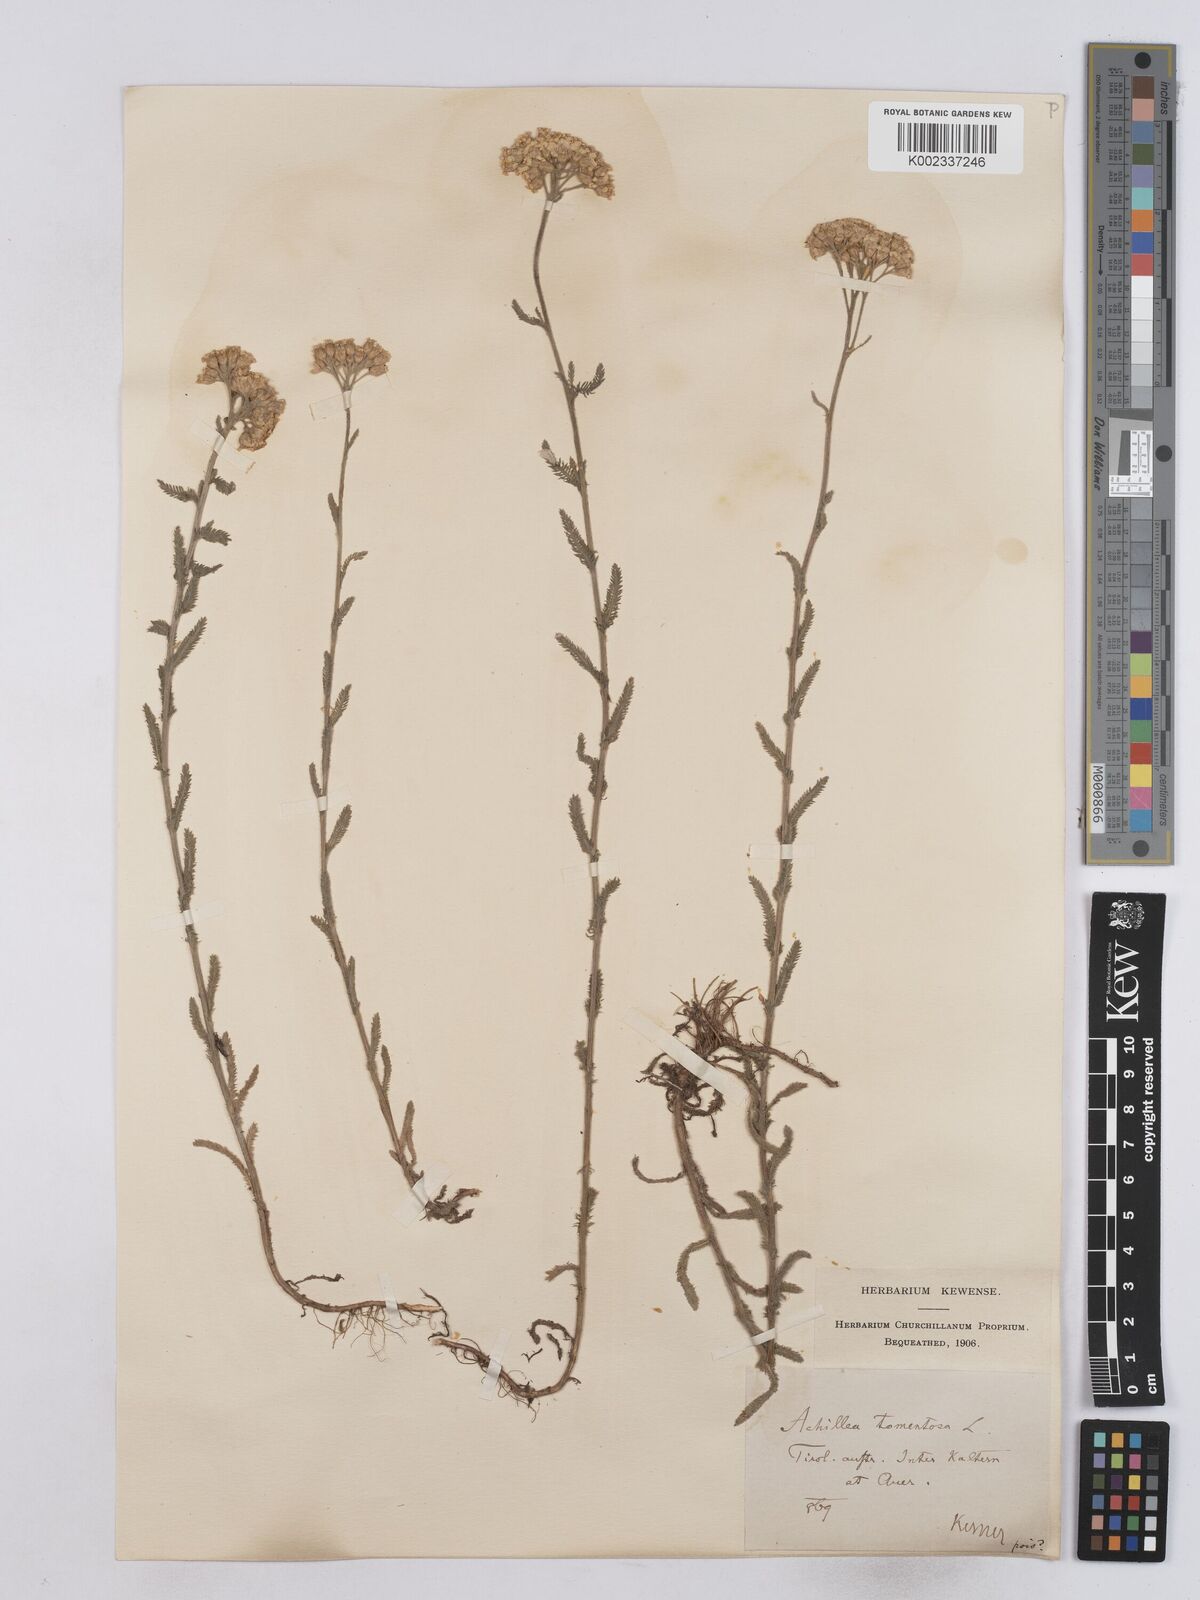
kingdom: Plantae
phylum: Tracheophyta
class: Magnoliopsida
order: Asterales
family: Asteraceae
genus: Achillea
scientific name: Achillea tomentosa
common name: Yellow milfoil
